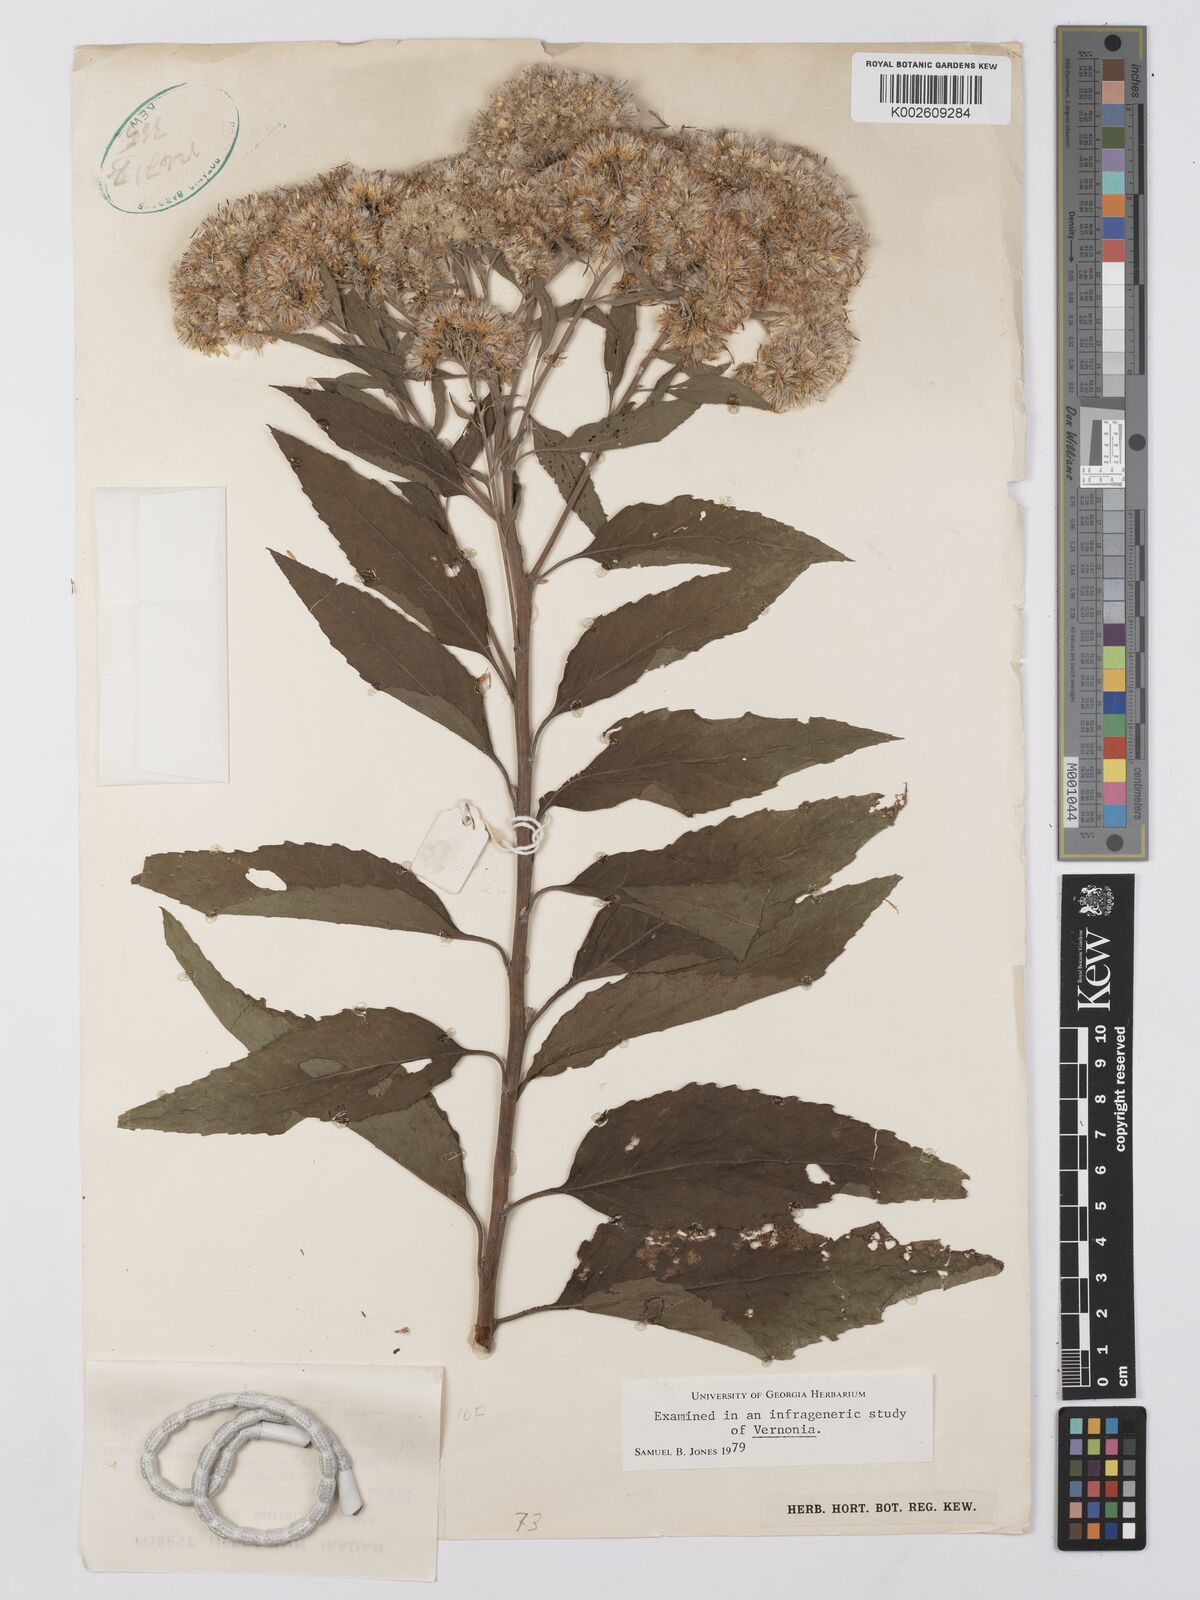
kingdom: Plantae
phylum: Tracheophyta
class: Magnoliopsida
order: Asterales
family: Asteraceae
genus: Gymnanthemum
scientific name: Gymnanthemum thomsonianum
